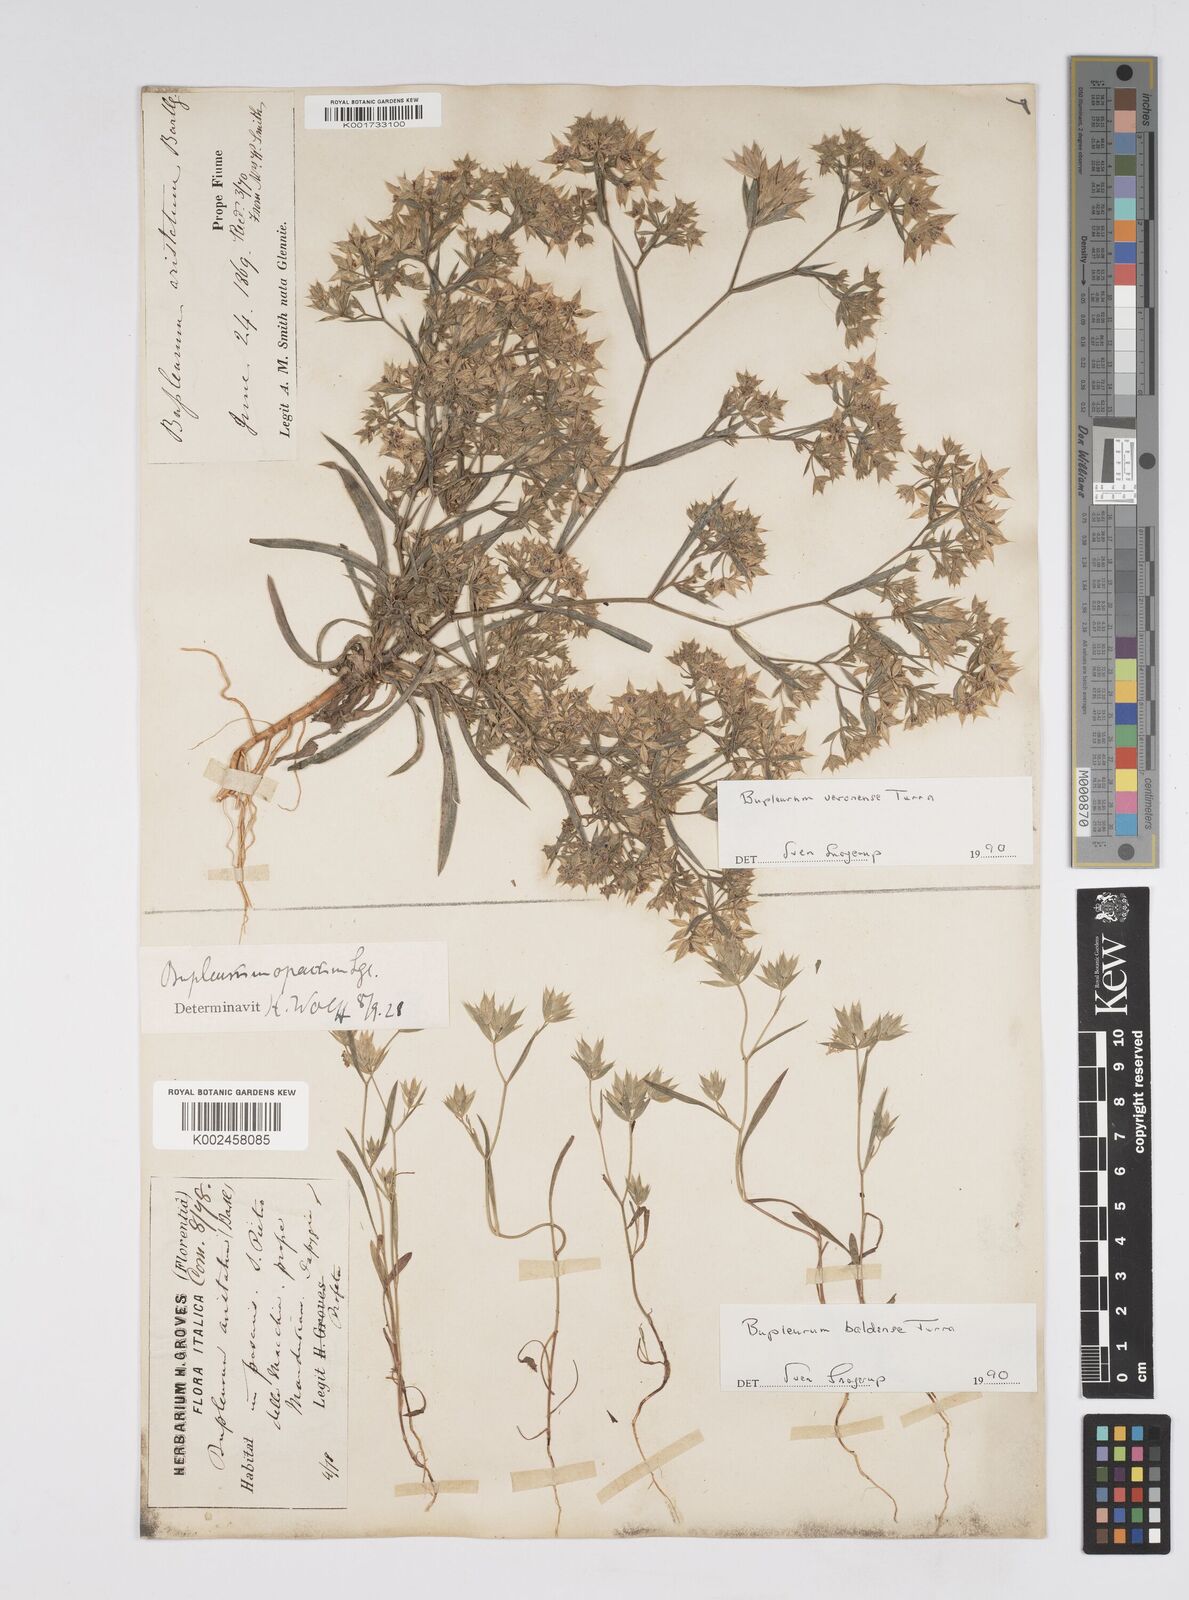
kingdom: Plantae
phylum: Tracheophyta
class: Magnoliopsida
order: Apiales
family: Apiaceae
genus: Bupleurum
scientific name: Bupleurum baldense
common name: Small hare's-ear
